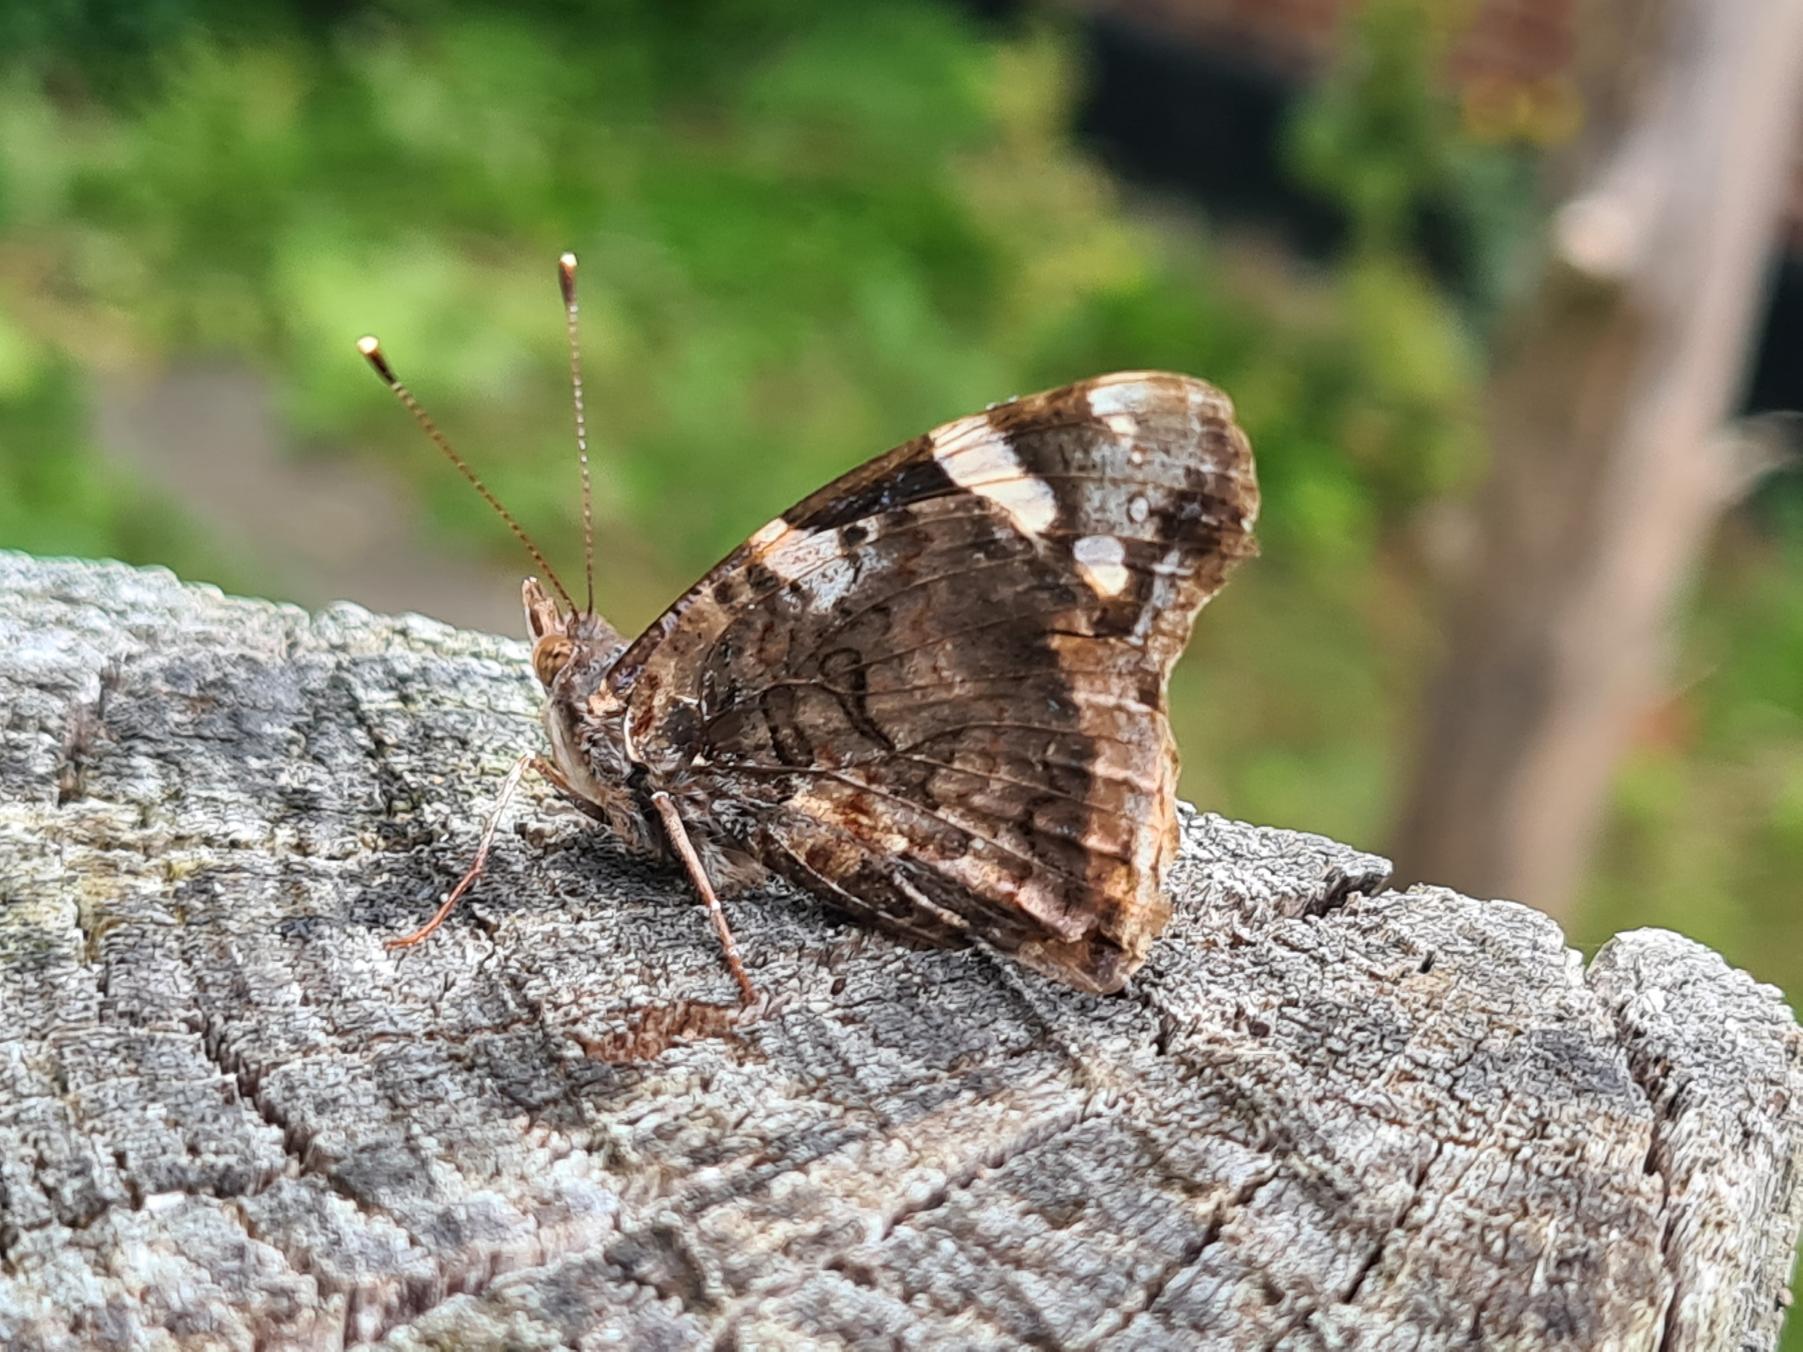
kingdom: Animalia
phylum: Arthropoda
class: Insecta
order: Lepidoptera
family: Nymphalidae
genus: Vanessa
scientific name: Vanessa atalanta
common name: Admiral
